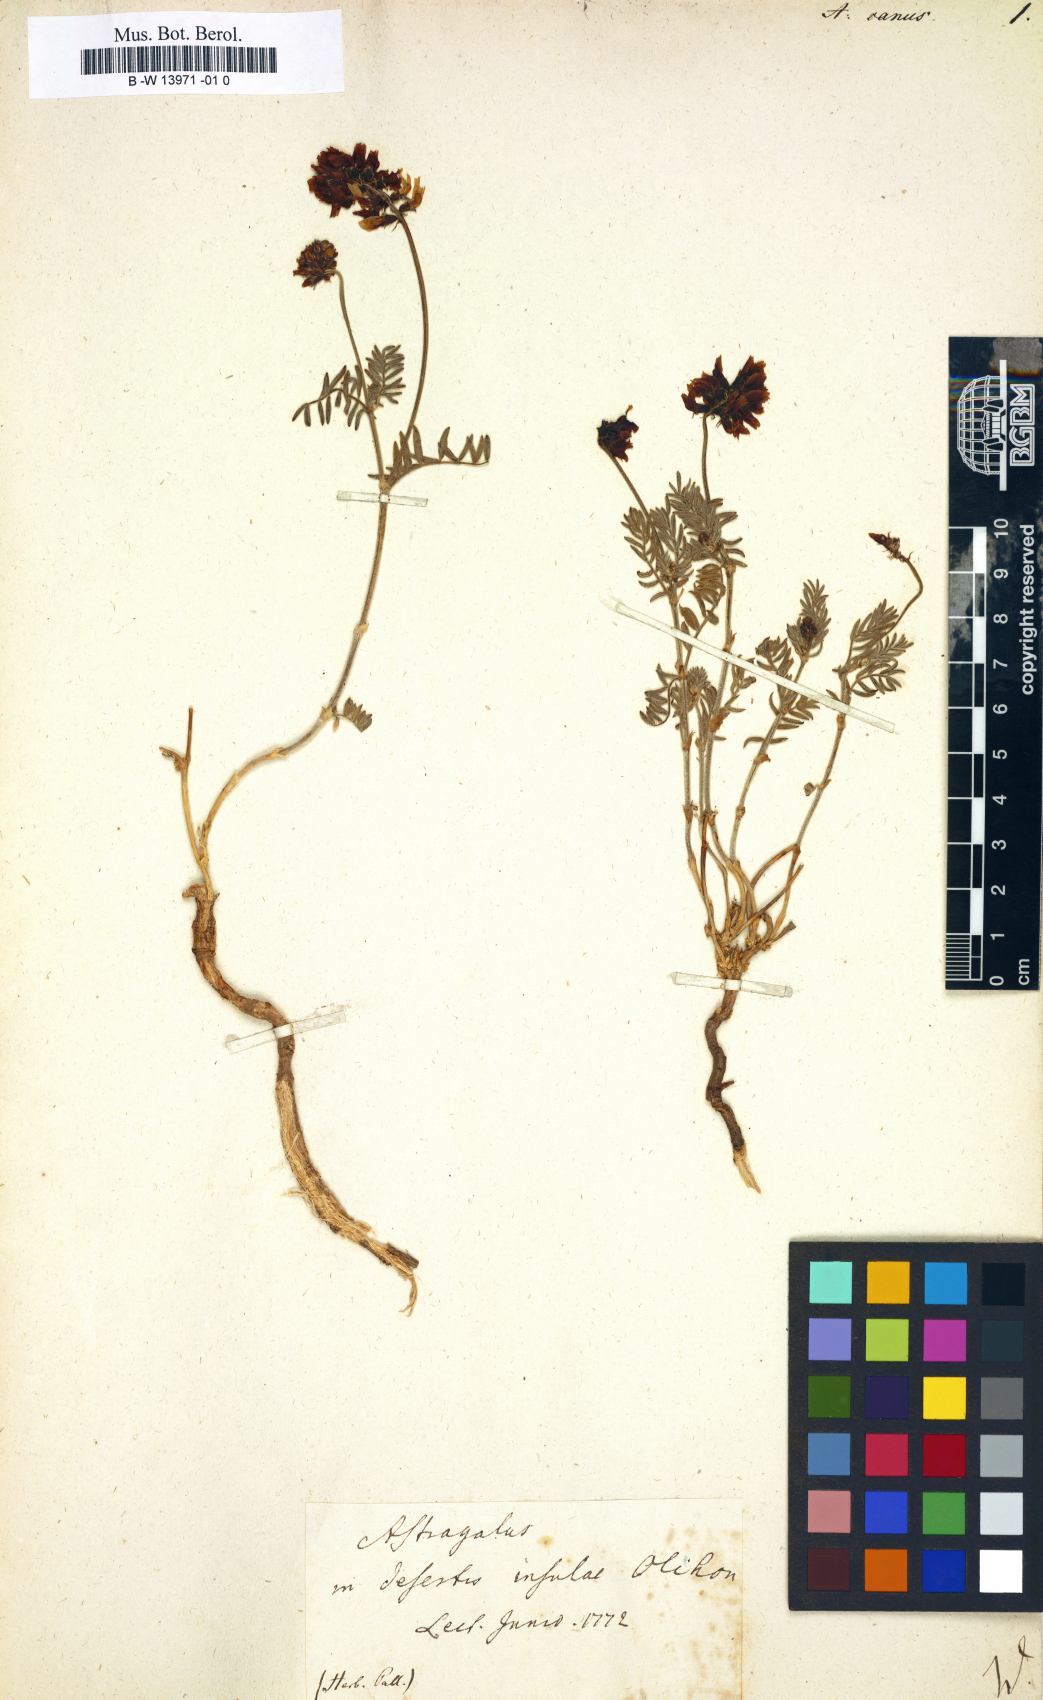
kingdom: Plantae
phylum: Tracheophyta
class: Magnoliopsida
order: Fabales
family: Fabaceae
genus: Astragalus
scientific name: Astragalus
